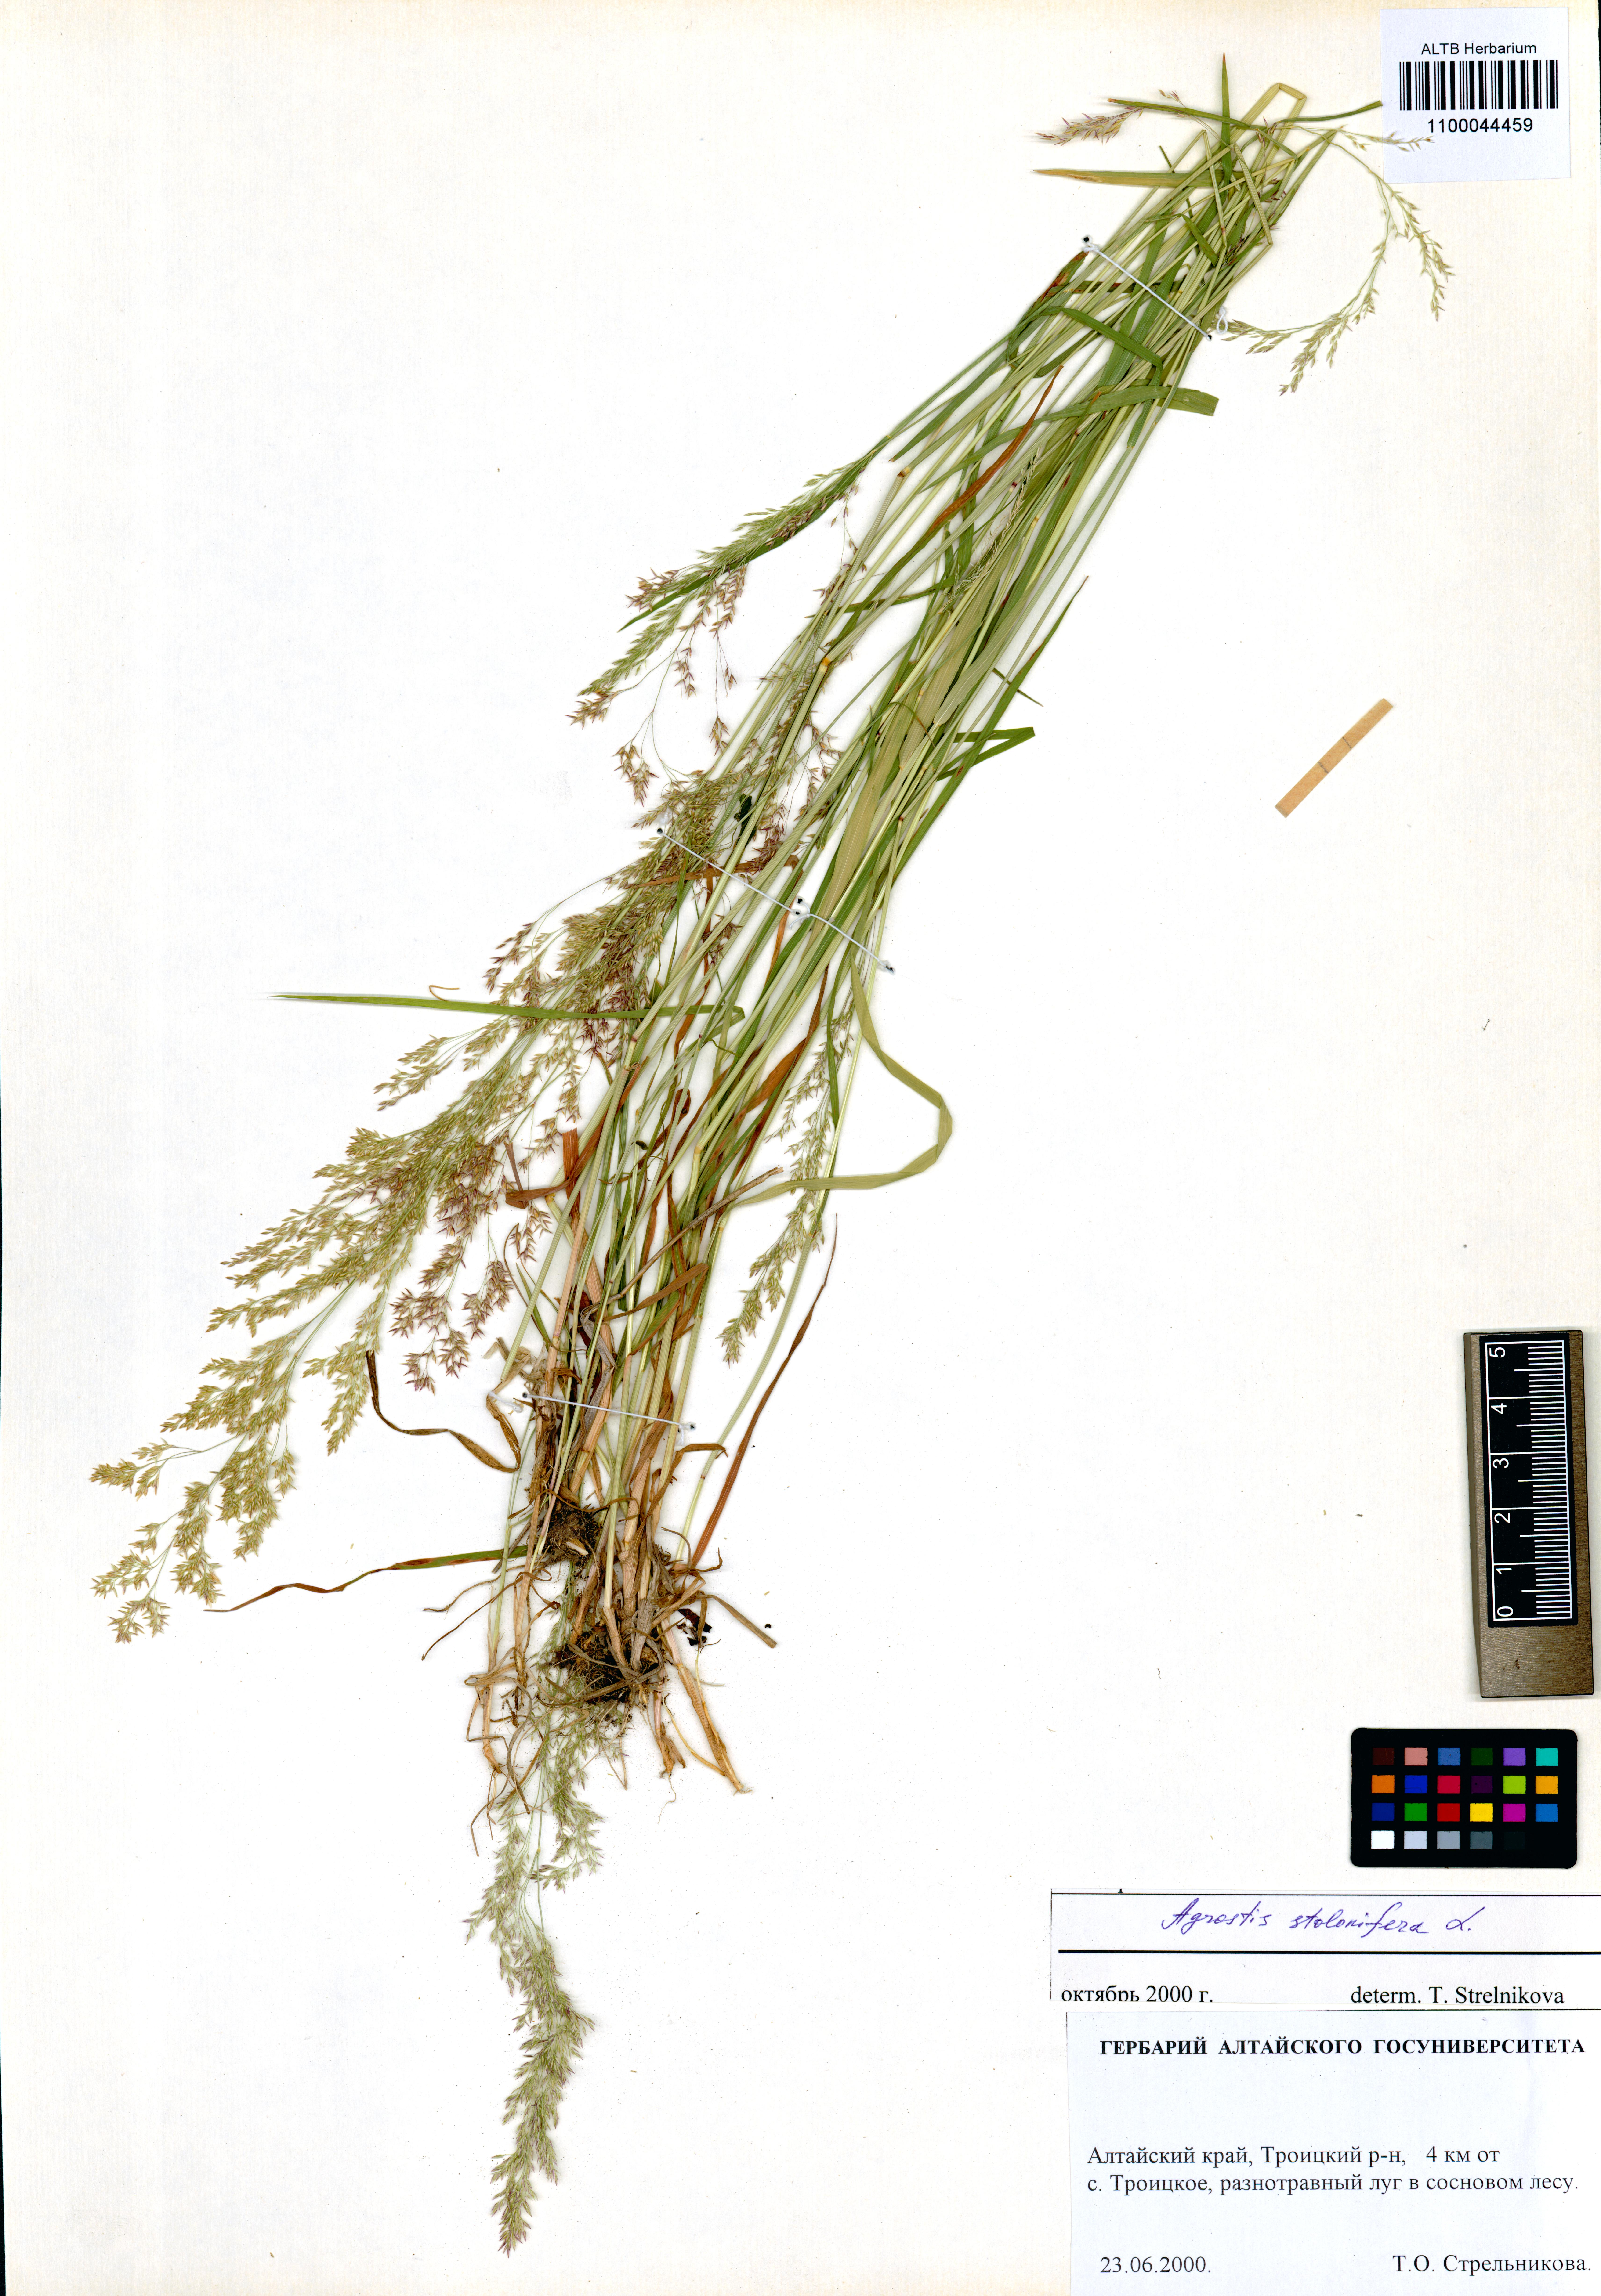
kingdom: Plantae
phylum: Tracheophyta
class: Liliopsida
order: Poales
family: Poaceae
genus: Agrostis
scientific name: Agrostis stolonifera
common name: Creeping bentgrass
